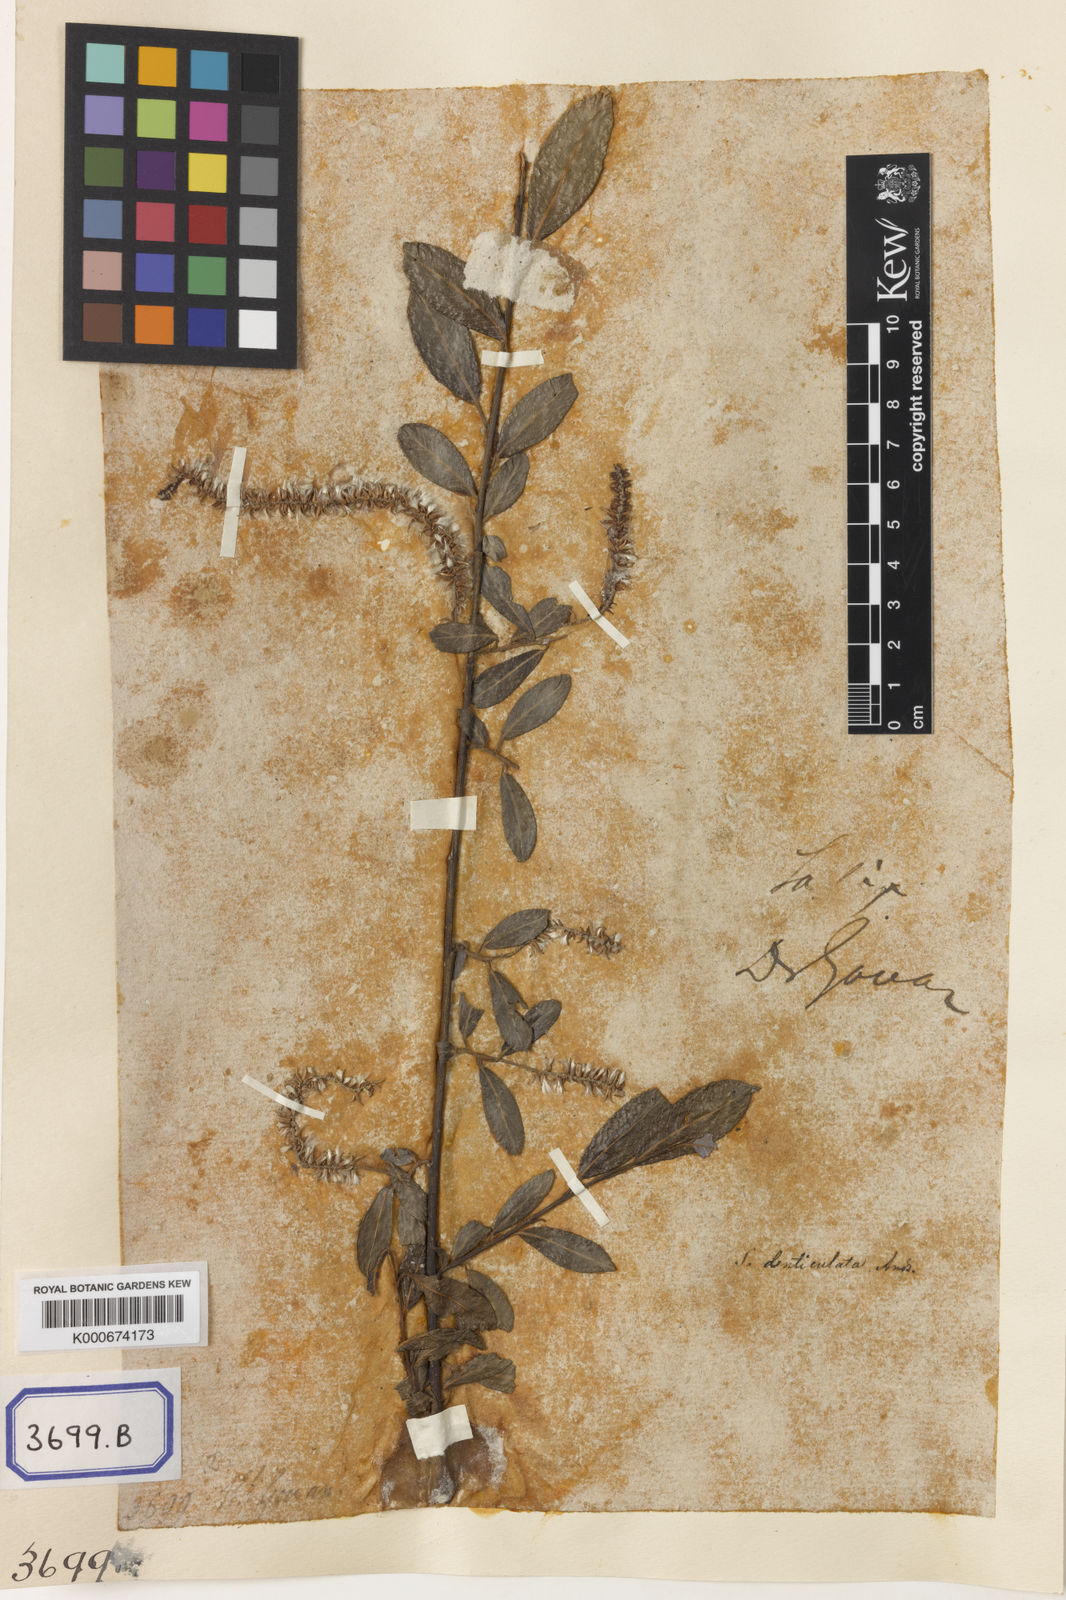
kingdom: Plantae
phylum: Tracheophyta
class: Magnoliopsida
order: Malpighiales
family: Salicaceae
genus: Salix
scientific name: Salix denticulata
